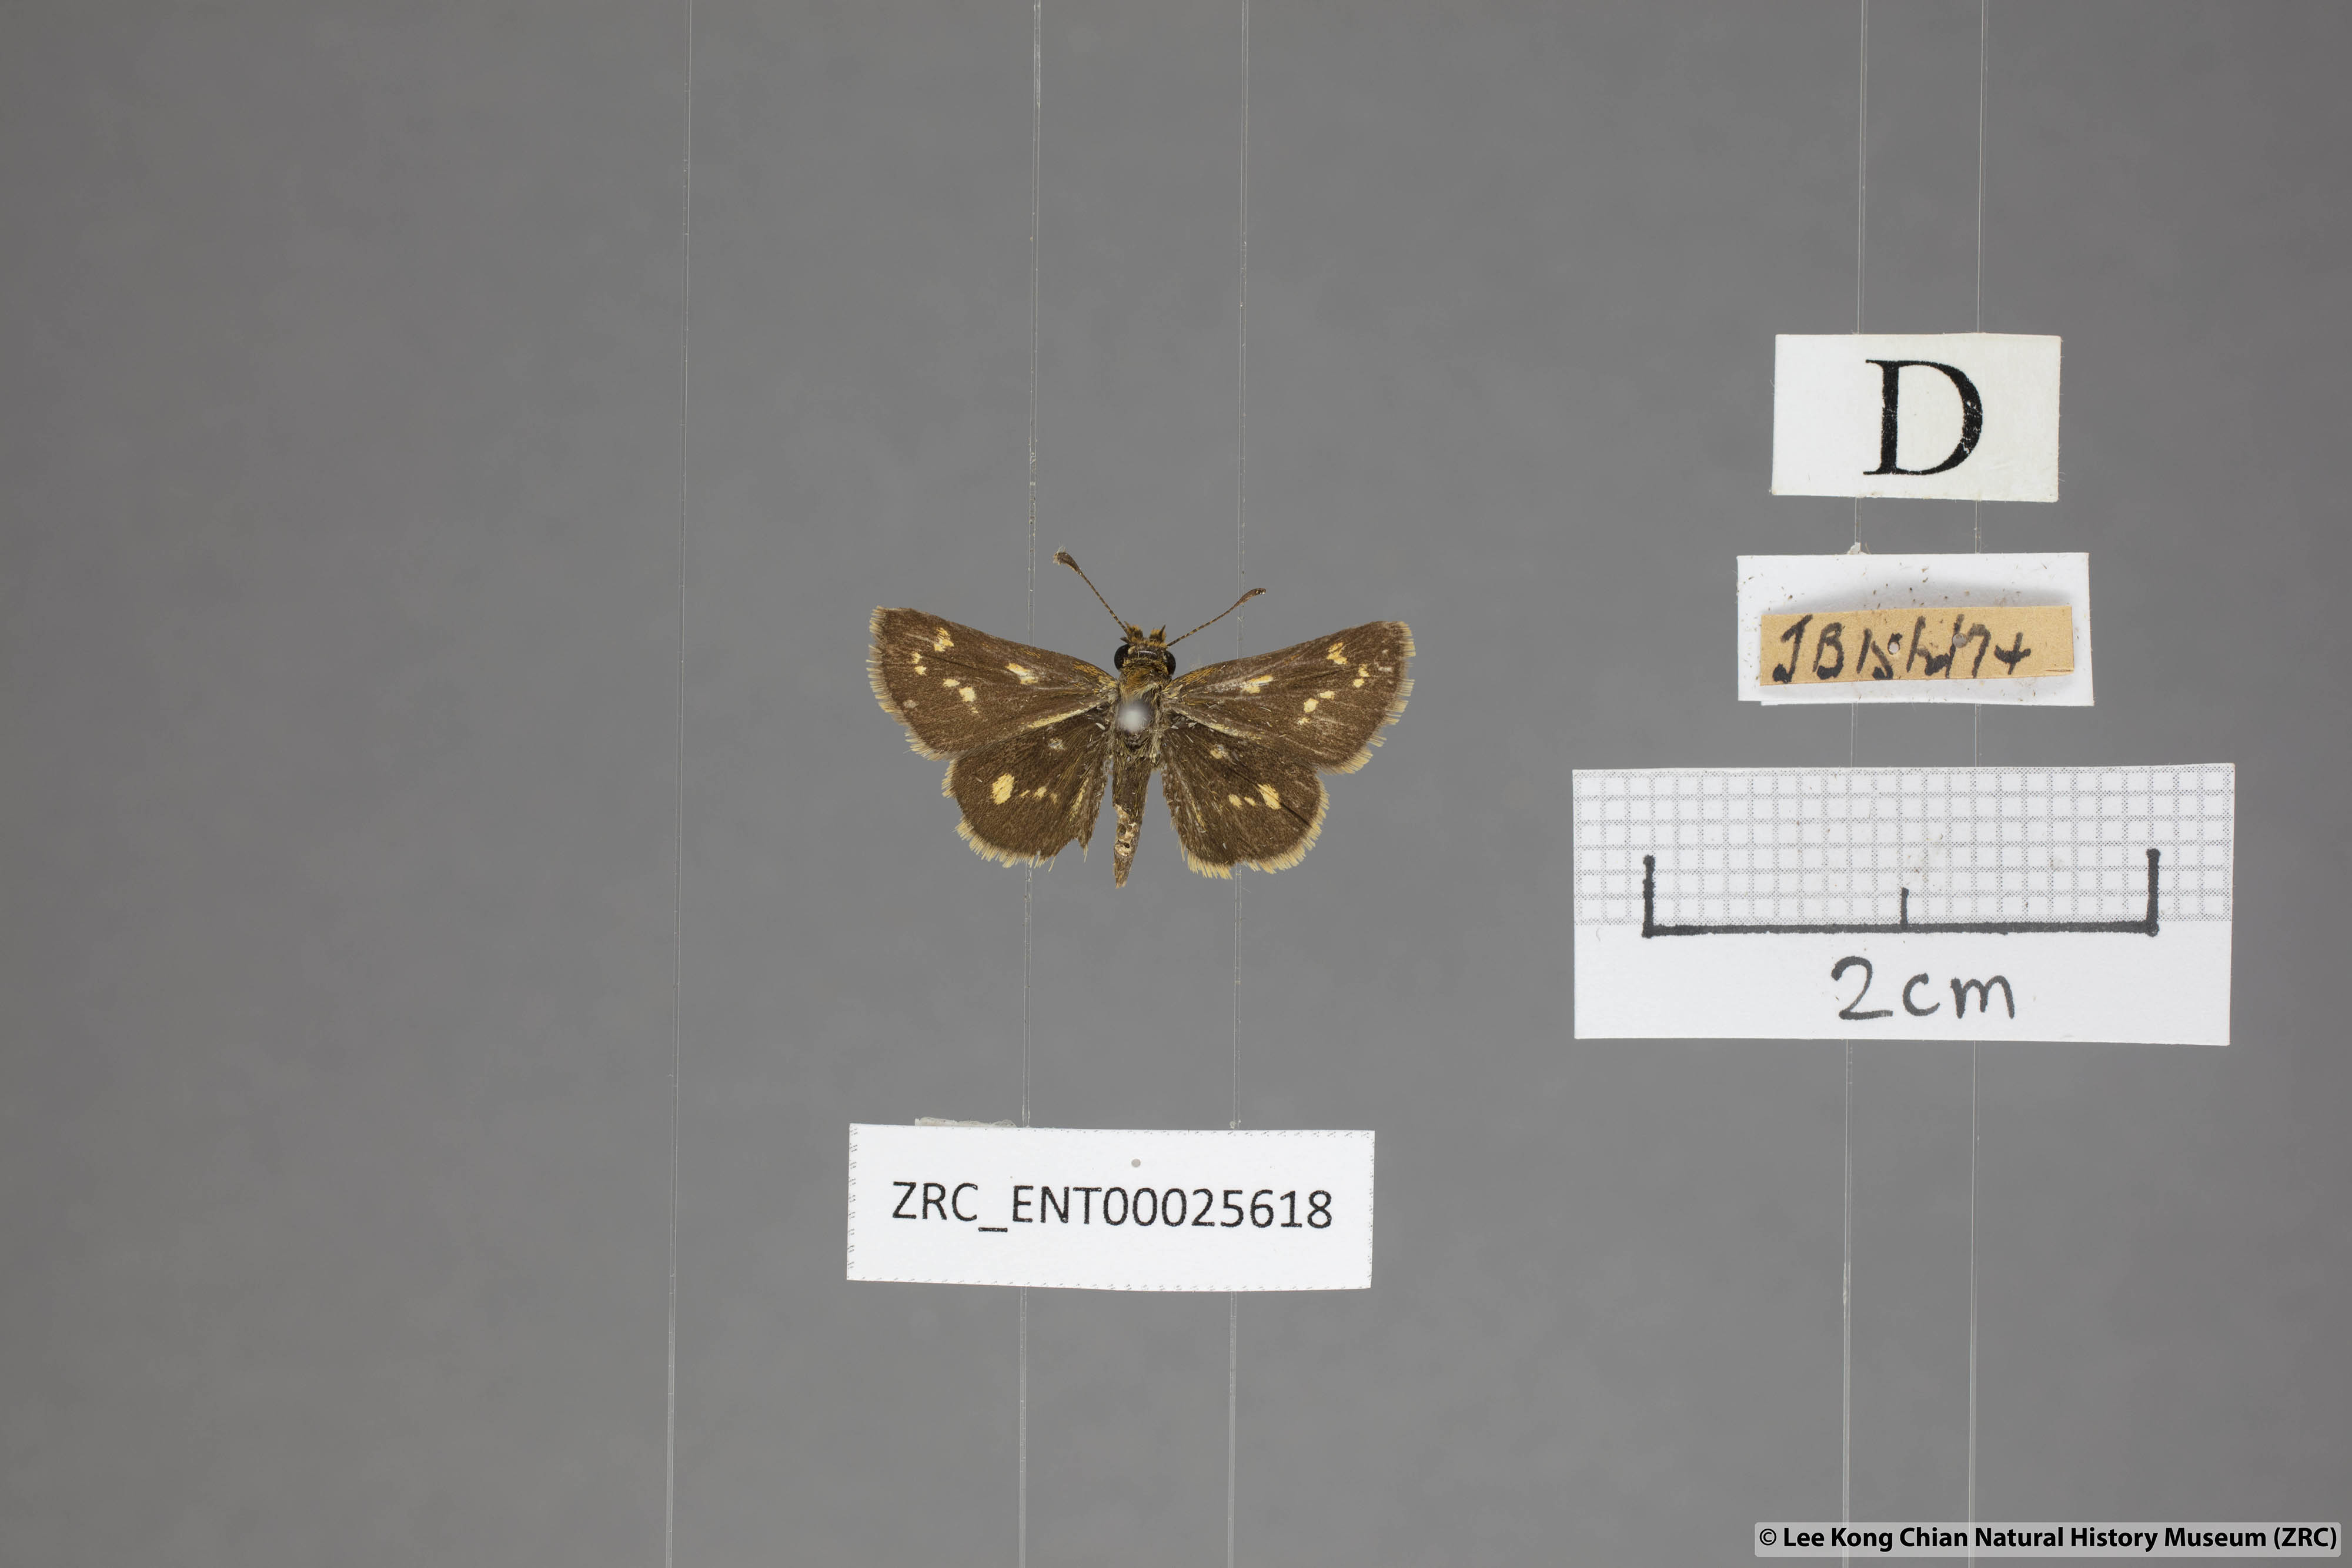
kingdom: Animalia
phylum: Arthropoda
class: Insecta
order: Lepidoptera
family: Hesperiidae
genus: Taractrocera
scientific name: Taractrocera ardonia
